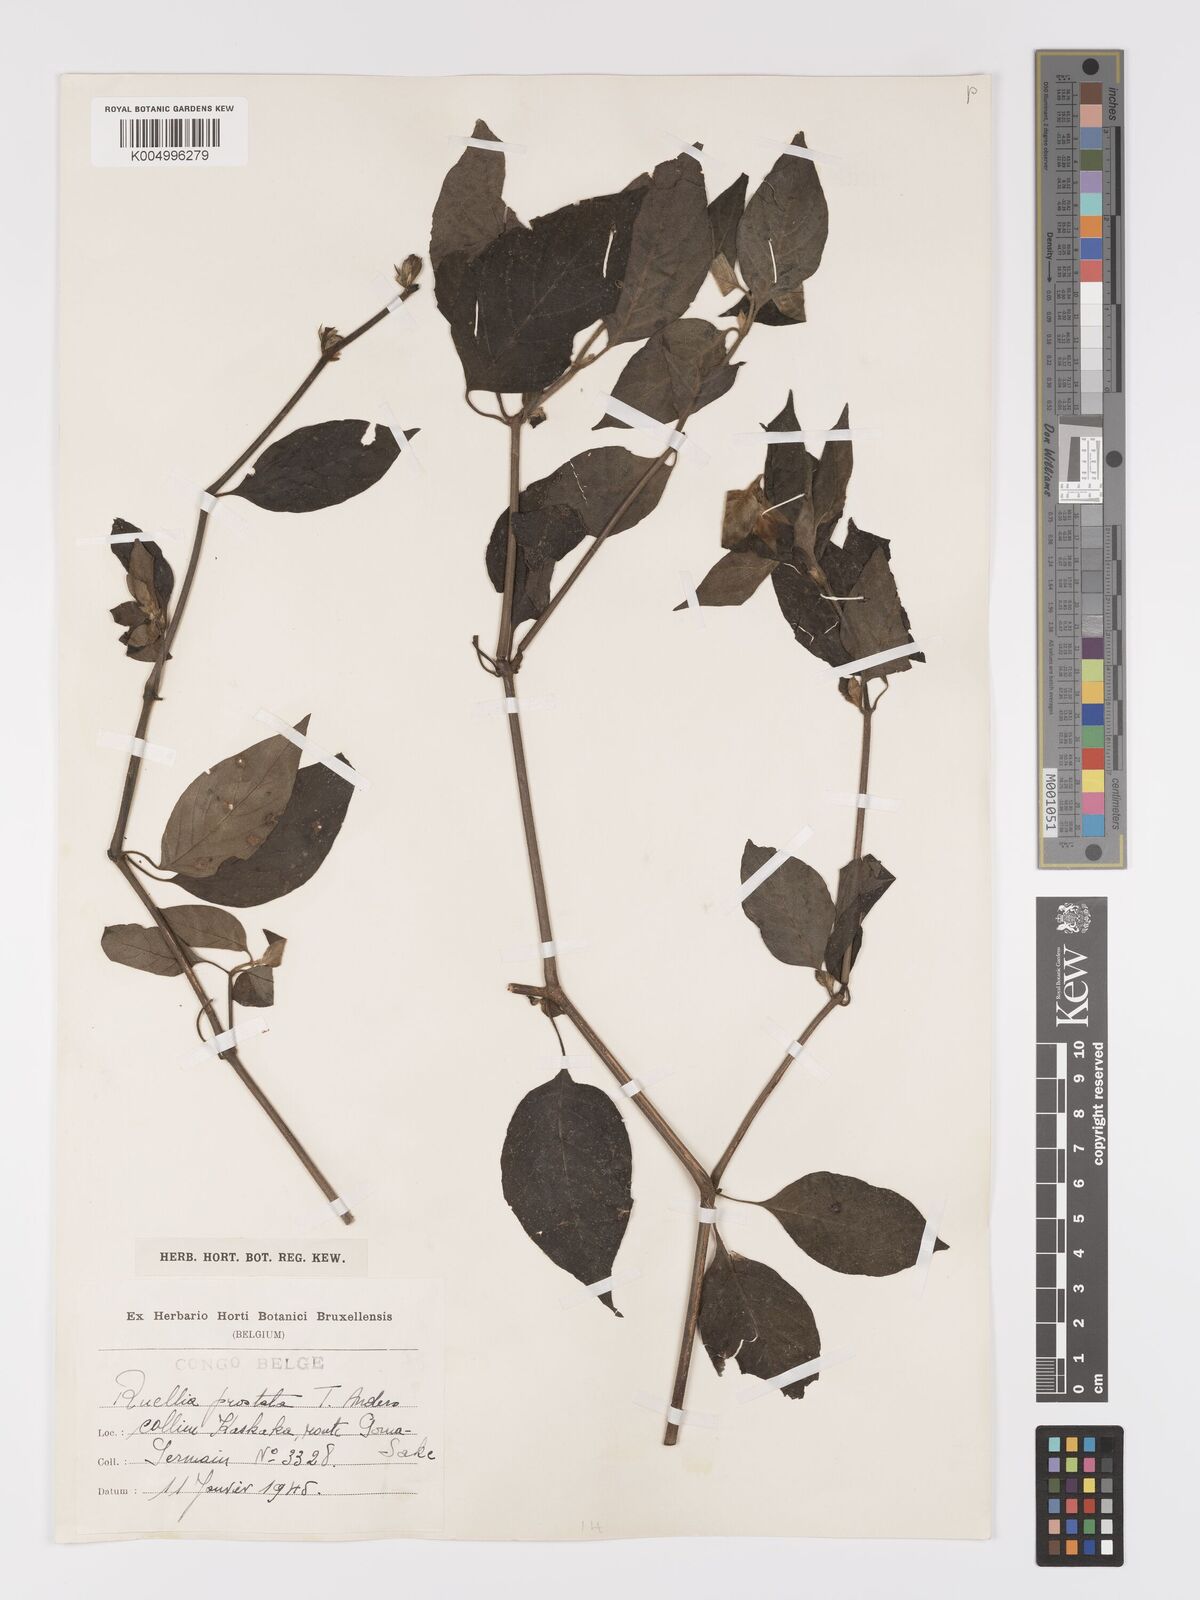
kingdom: Plantae
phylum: Tracheophyta
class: Magnoliopsida
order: Lamiales
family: Acanthaceae
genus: Ruellia
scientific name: Ruellia
